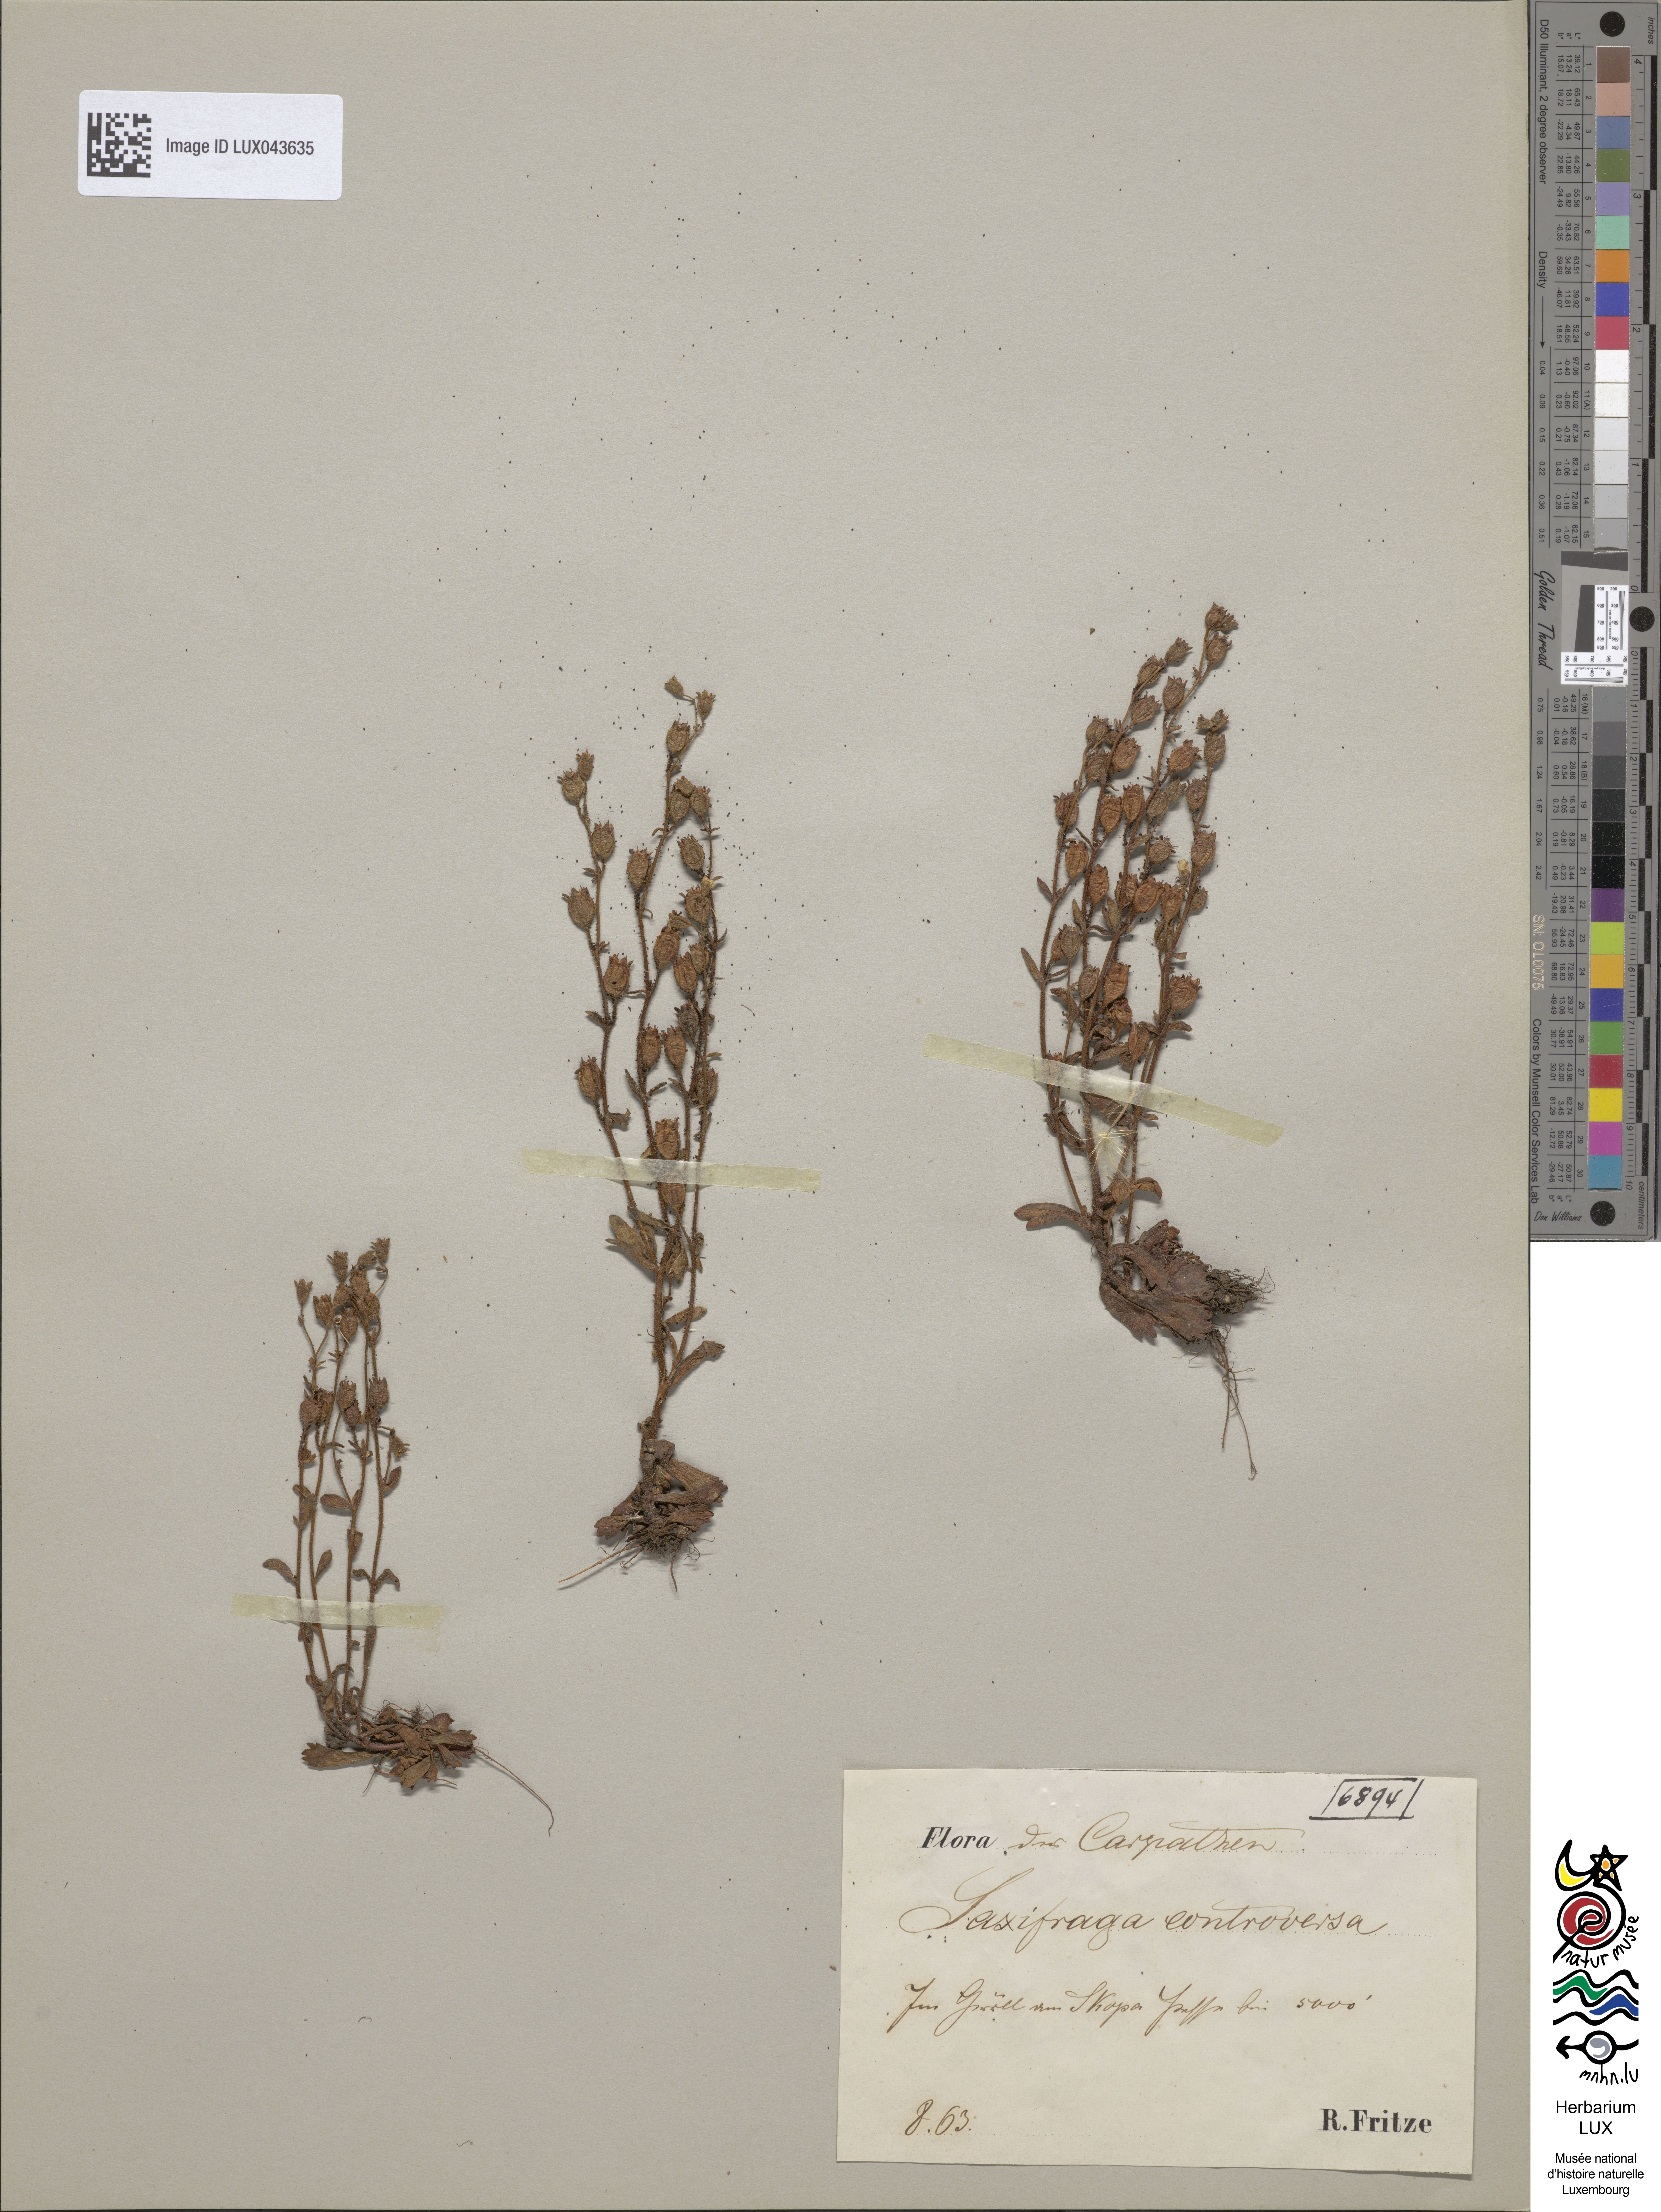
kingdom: Plantae
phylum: Tracheophyta
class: Magnoliopsida
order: Saxifragales
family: Saxifragaceae
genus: Saxifraga
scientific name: Saxifraga adscendens
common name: Ascending saxifrage
